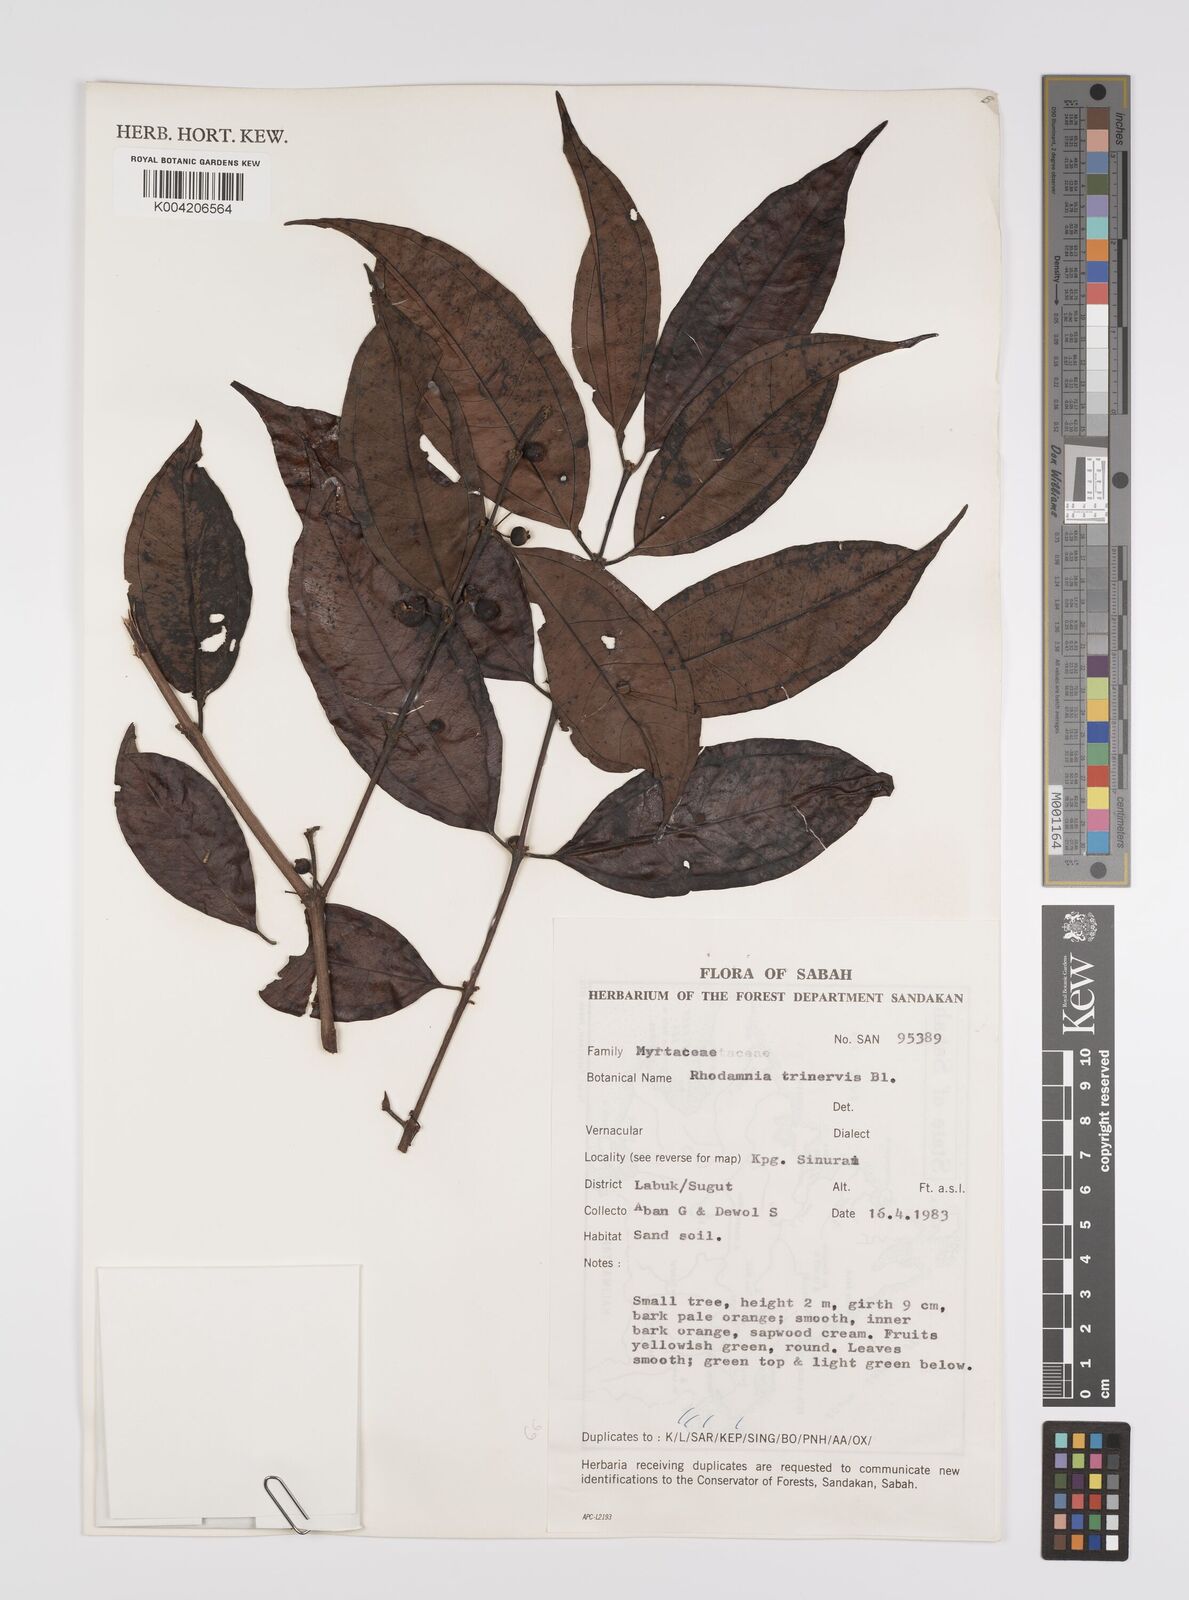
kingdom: Plantae
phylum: Tracheophyta
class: Magnoliopsida
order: Myrtales
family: Myrtaceae
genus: Rhodamnia
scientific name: Rhodamnia rubescens
